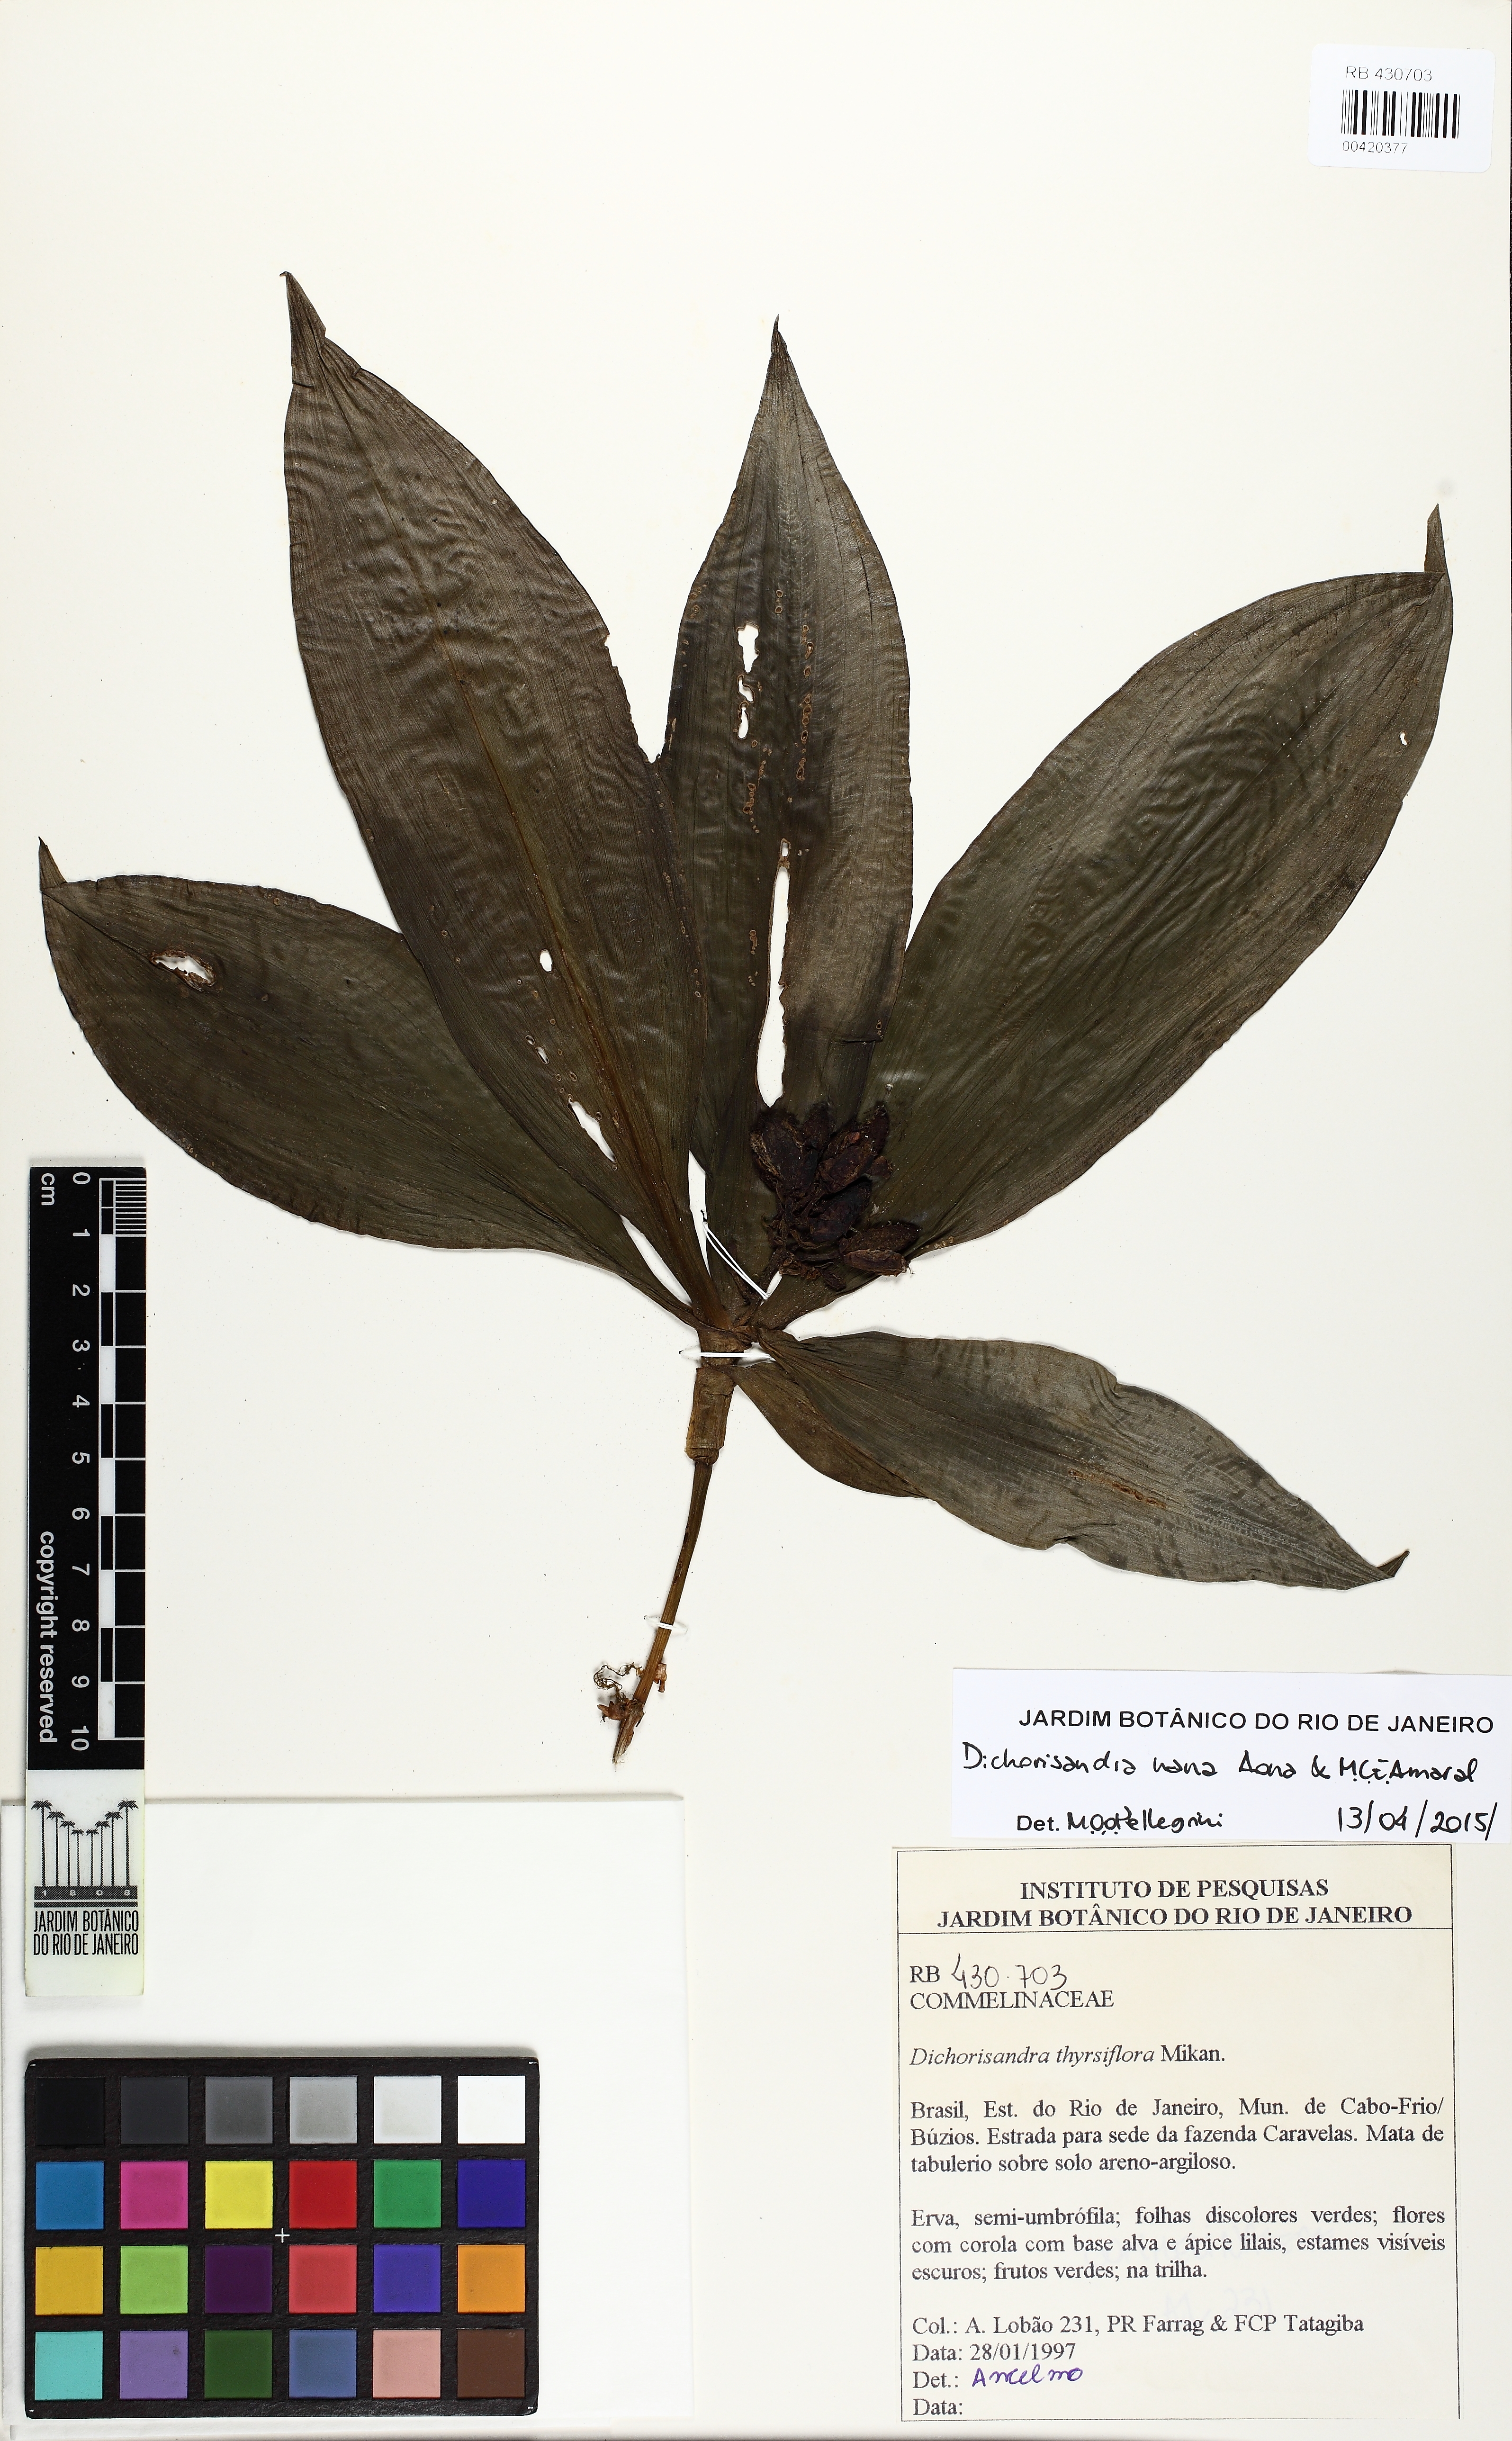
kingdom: Plantae
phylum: Tracheophyta
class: Liliopsida
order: Commelinales
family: Commelinaceae
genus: Dichorisandra
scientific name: Dichorisandra nana
